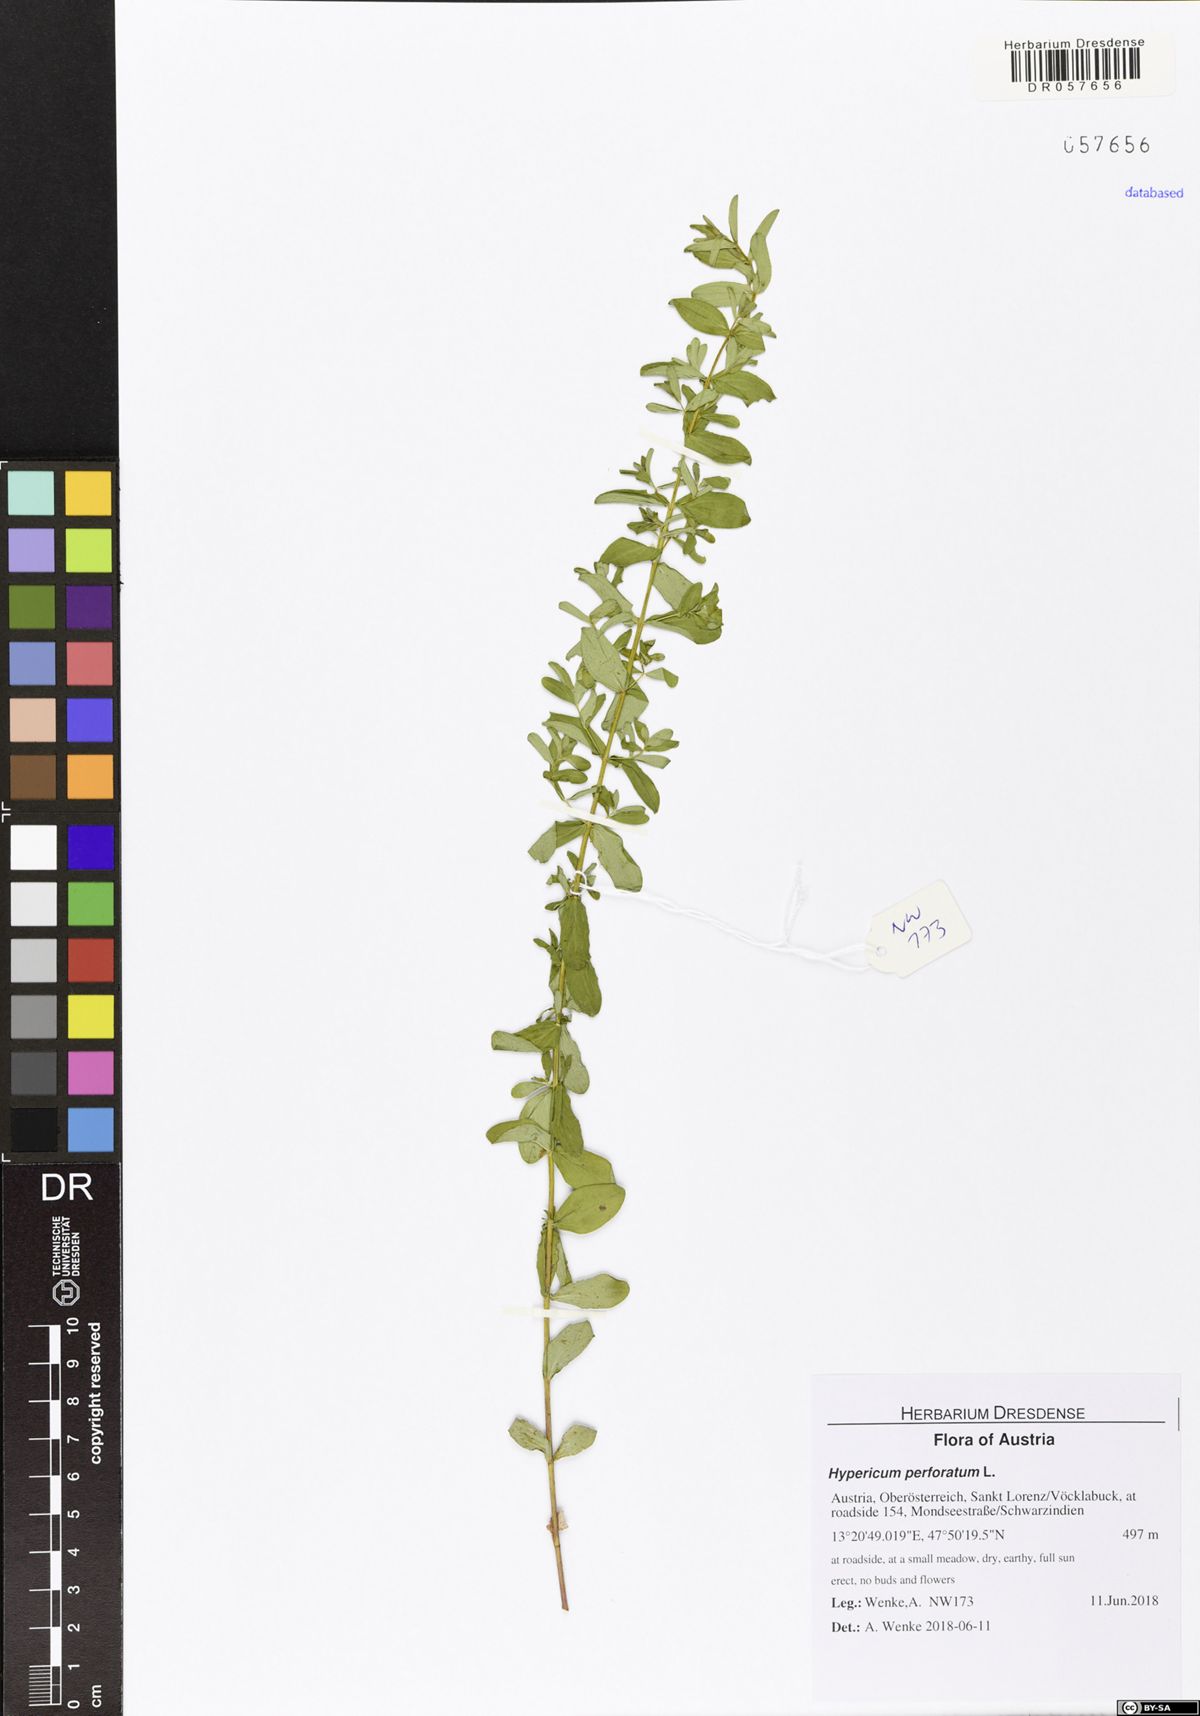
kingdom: Plantae
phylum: Tracheophyta
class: Magnoliopsida
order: Malpighiales
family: Hypericaceae
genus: Hypericum
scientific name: Hypericum perforatum
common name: Common st. johnswort
